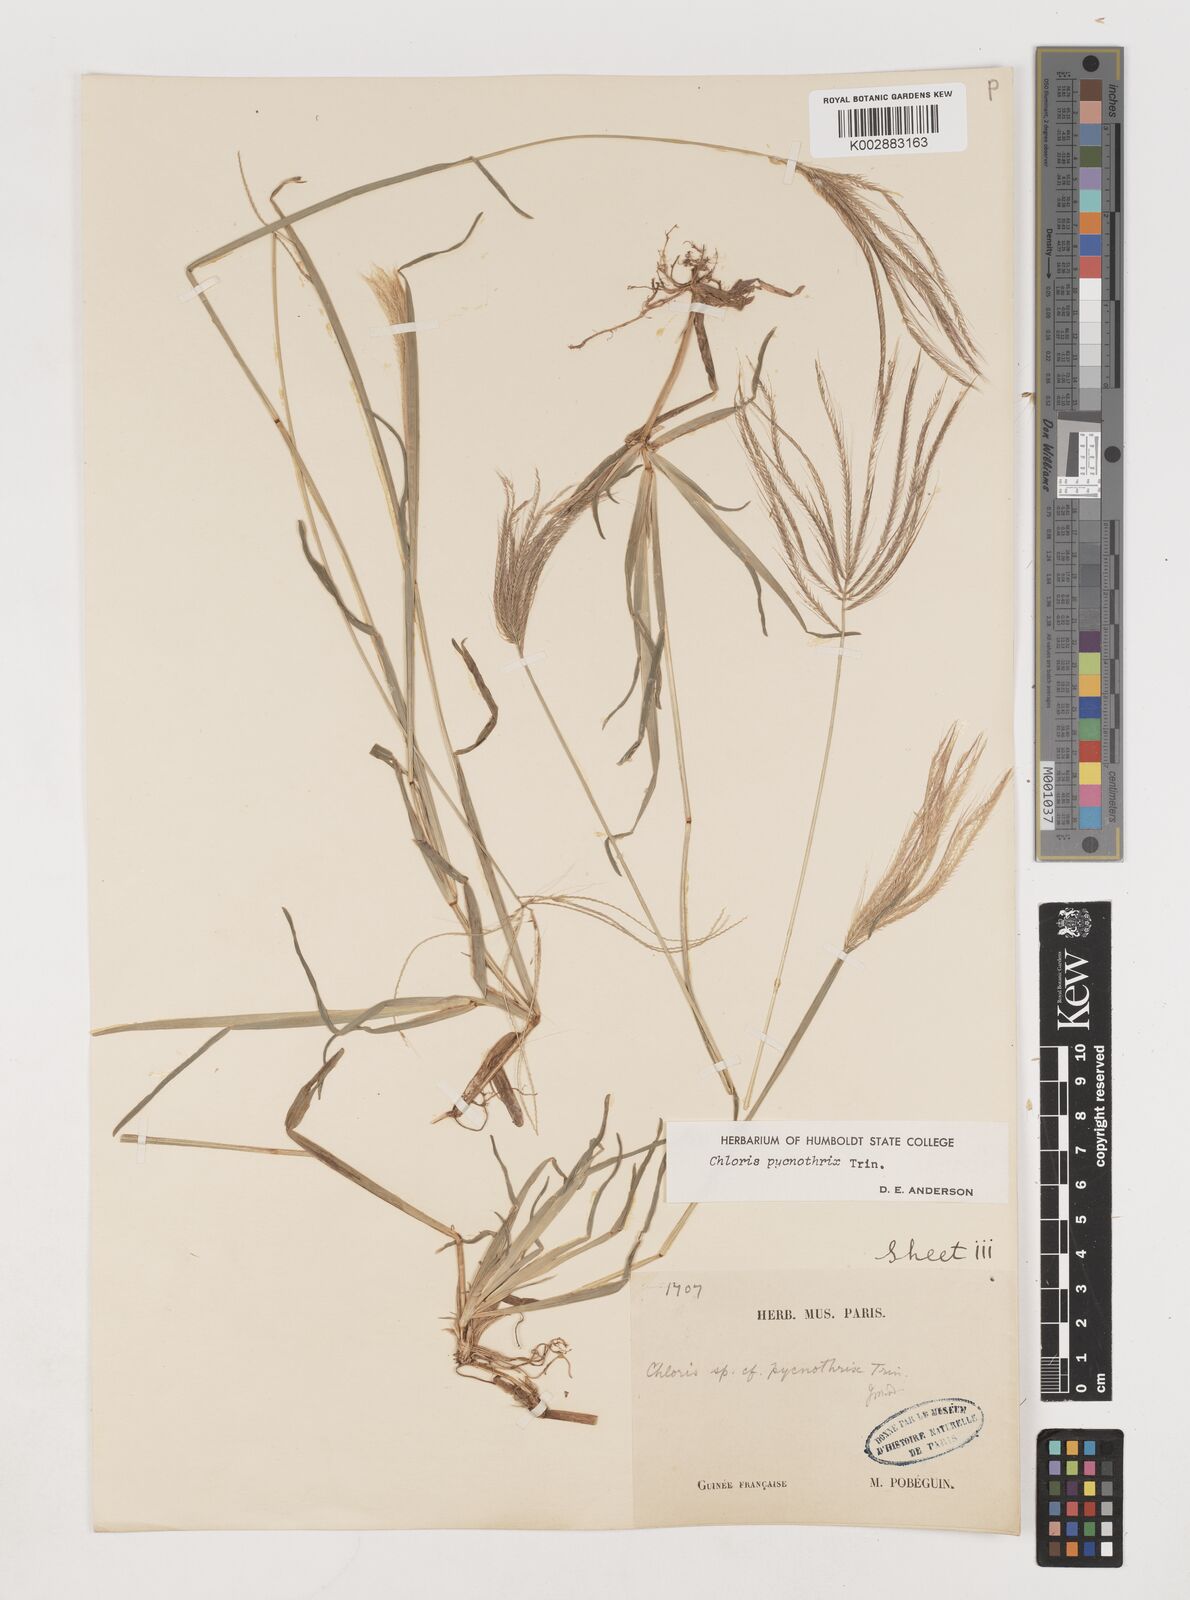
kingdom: Plantae
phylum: Tracheophyta
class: Liliopsida
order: Poales
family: Poaceae
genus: Chloris
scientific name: Chloris pycnothrix
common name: Spiderweb chloris
